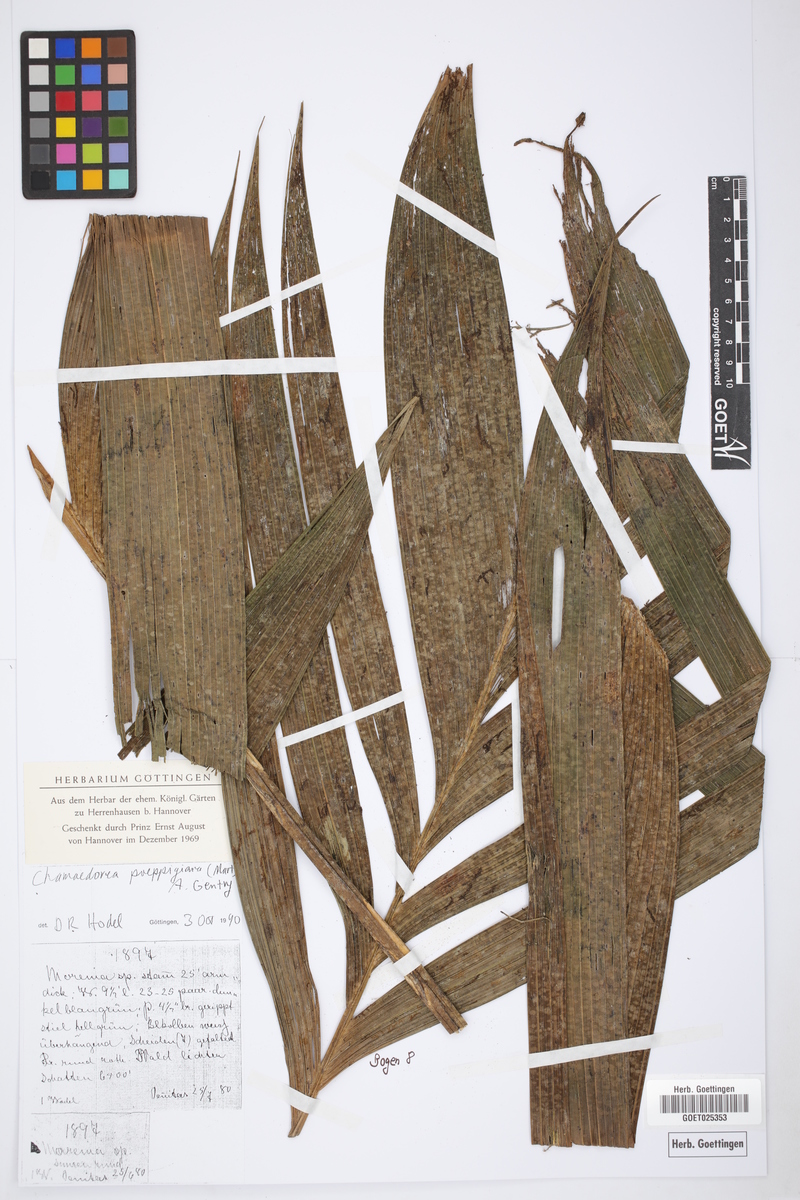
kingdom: Plantae
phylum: Tracheophyta
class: Liliopsida
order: Arecales
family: Arecaceae
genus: Chamaedorea
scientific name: Chamaedorea linearis
